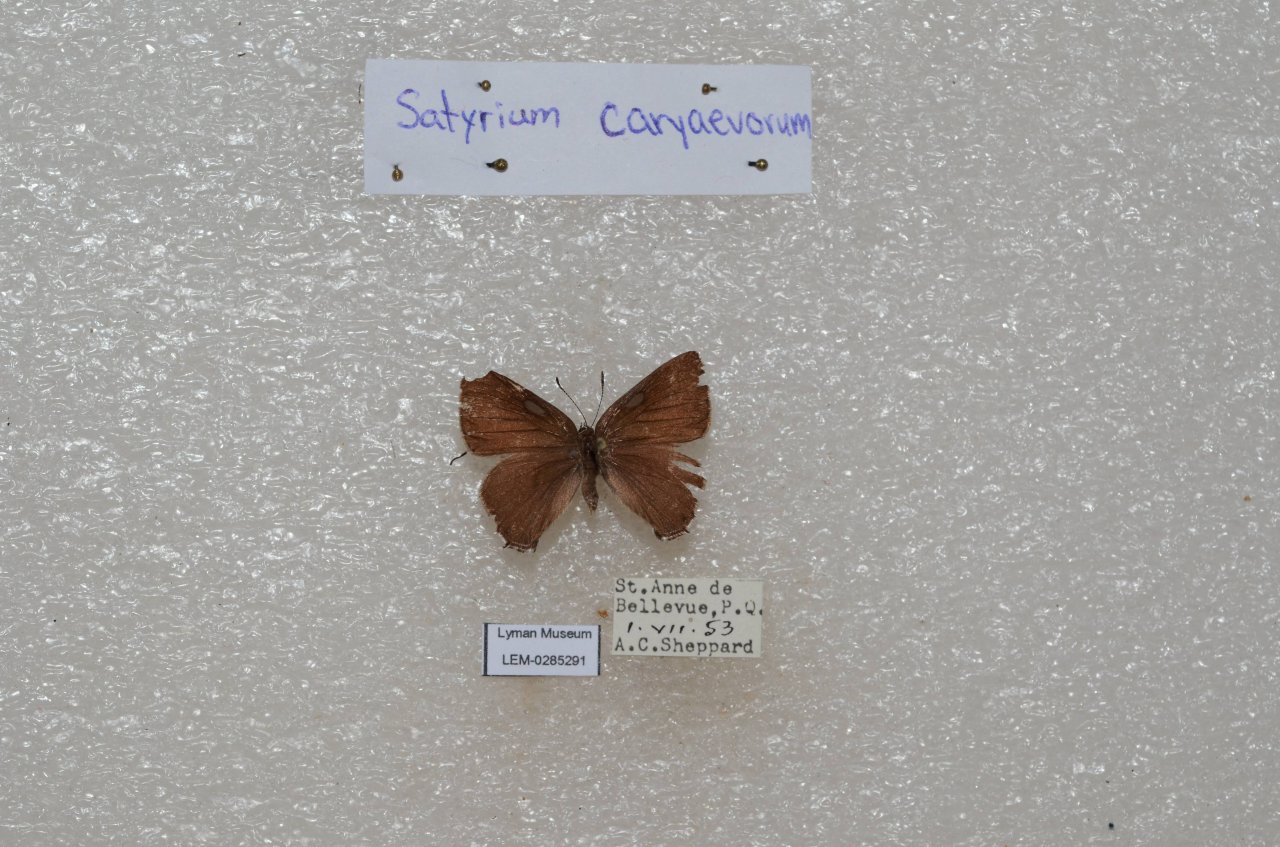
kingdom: Animalia
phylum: Arthropoda
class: Insecta
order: Lepidoptera
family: Lycaenidae
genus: Strymon
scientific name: Strymon caryaevorus
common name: Hickory Hairstreak
